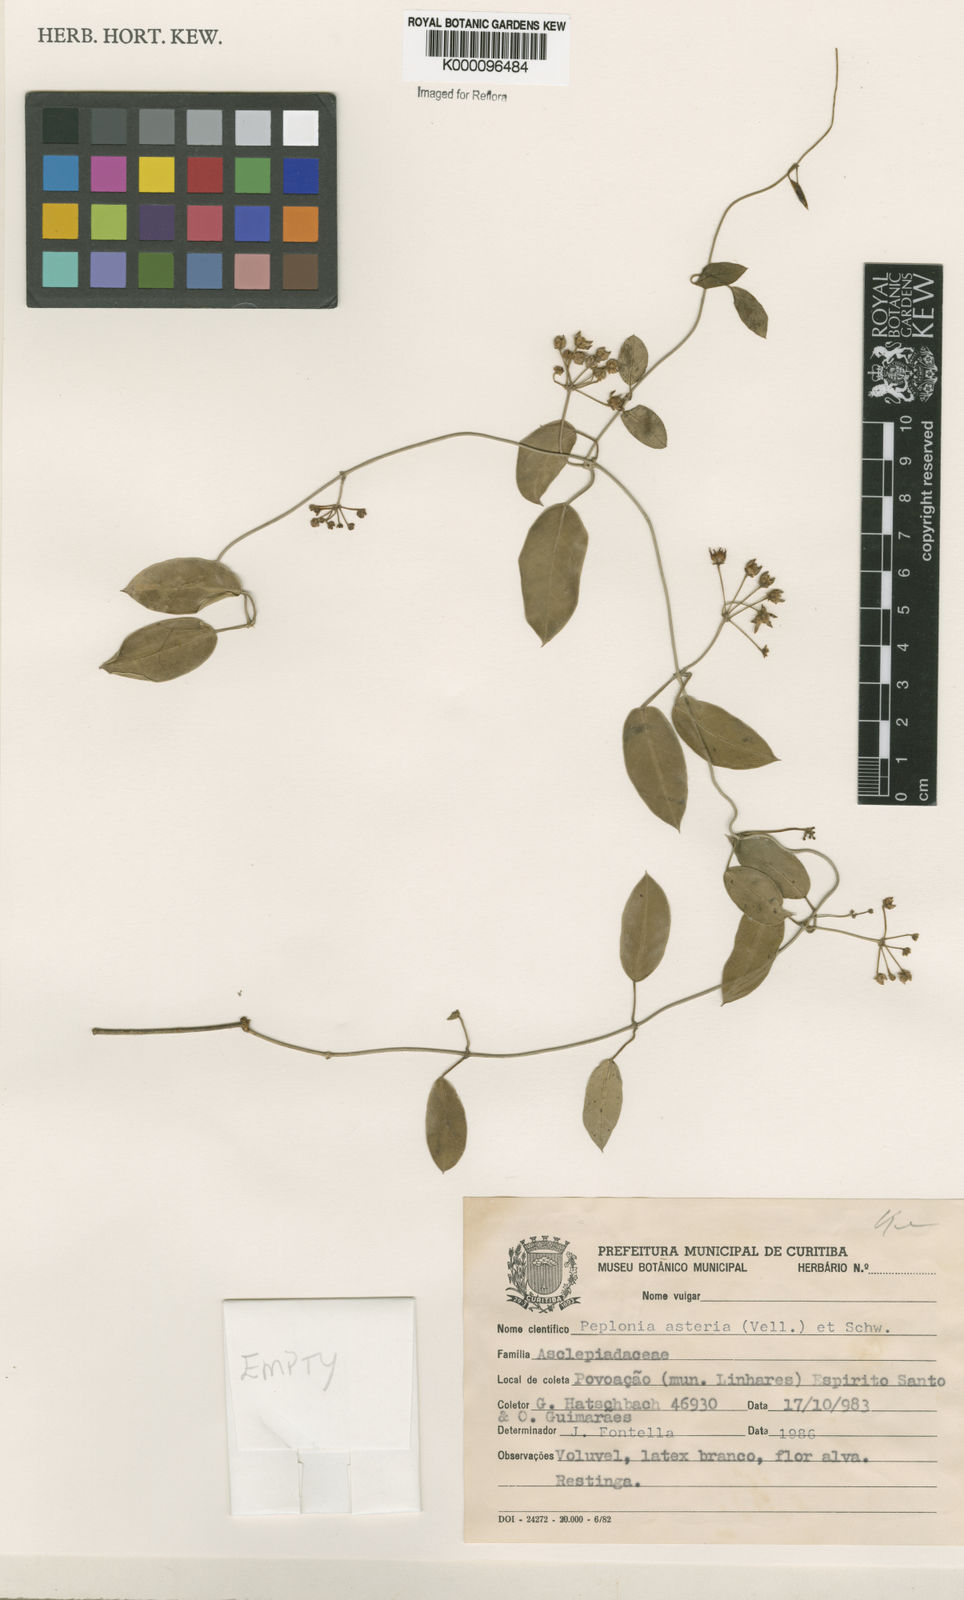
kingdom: Plantae
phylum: Tracheophyta
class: Magnoliopsida
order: Gentianales
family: Apocynaceae
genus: Peplonia
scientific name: Peplonia asteria
